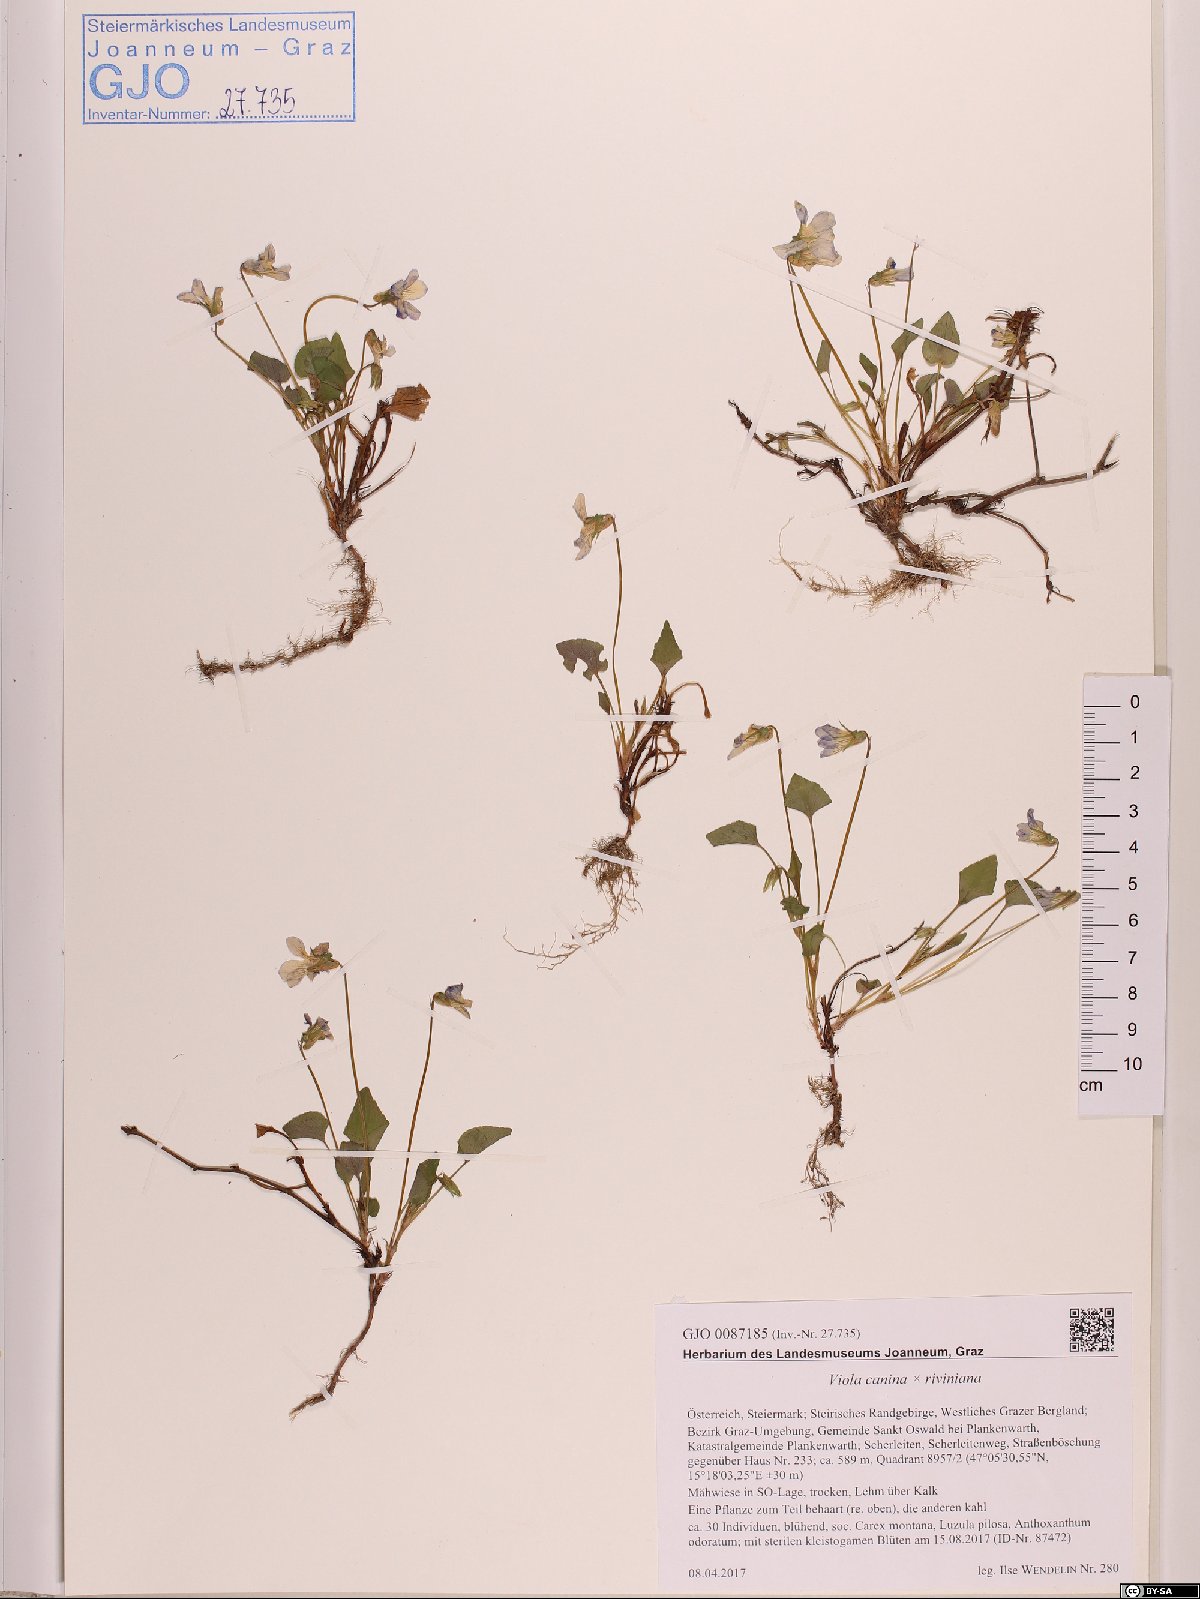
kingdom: Plantae
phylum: Tracheophyta
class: Magnoliopsida
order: Malpighiales
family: Violaceae
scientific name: Violaceae
